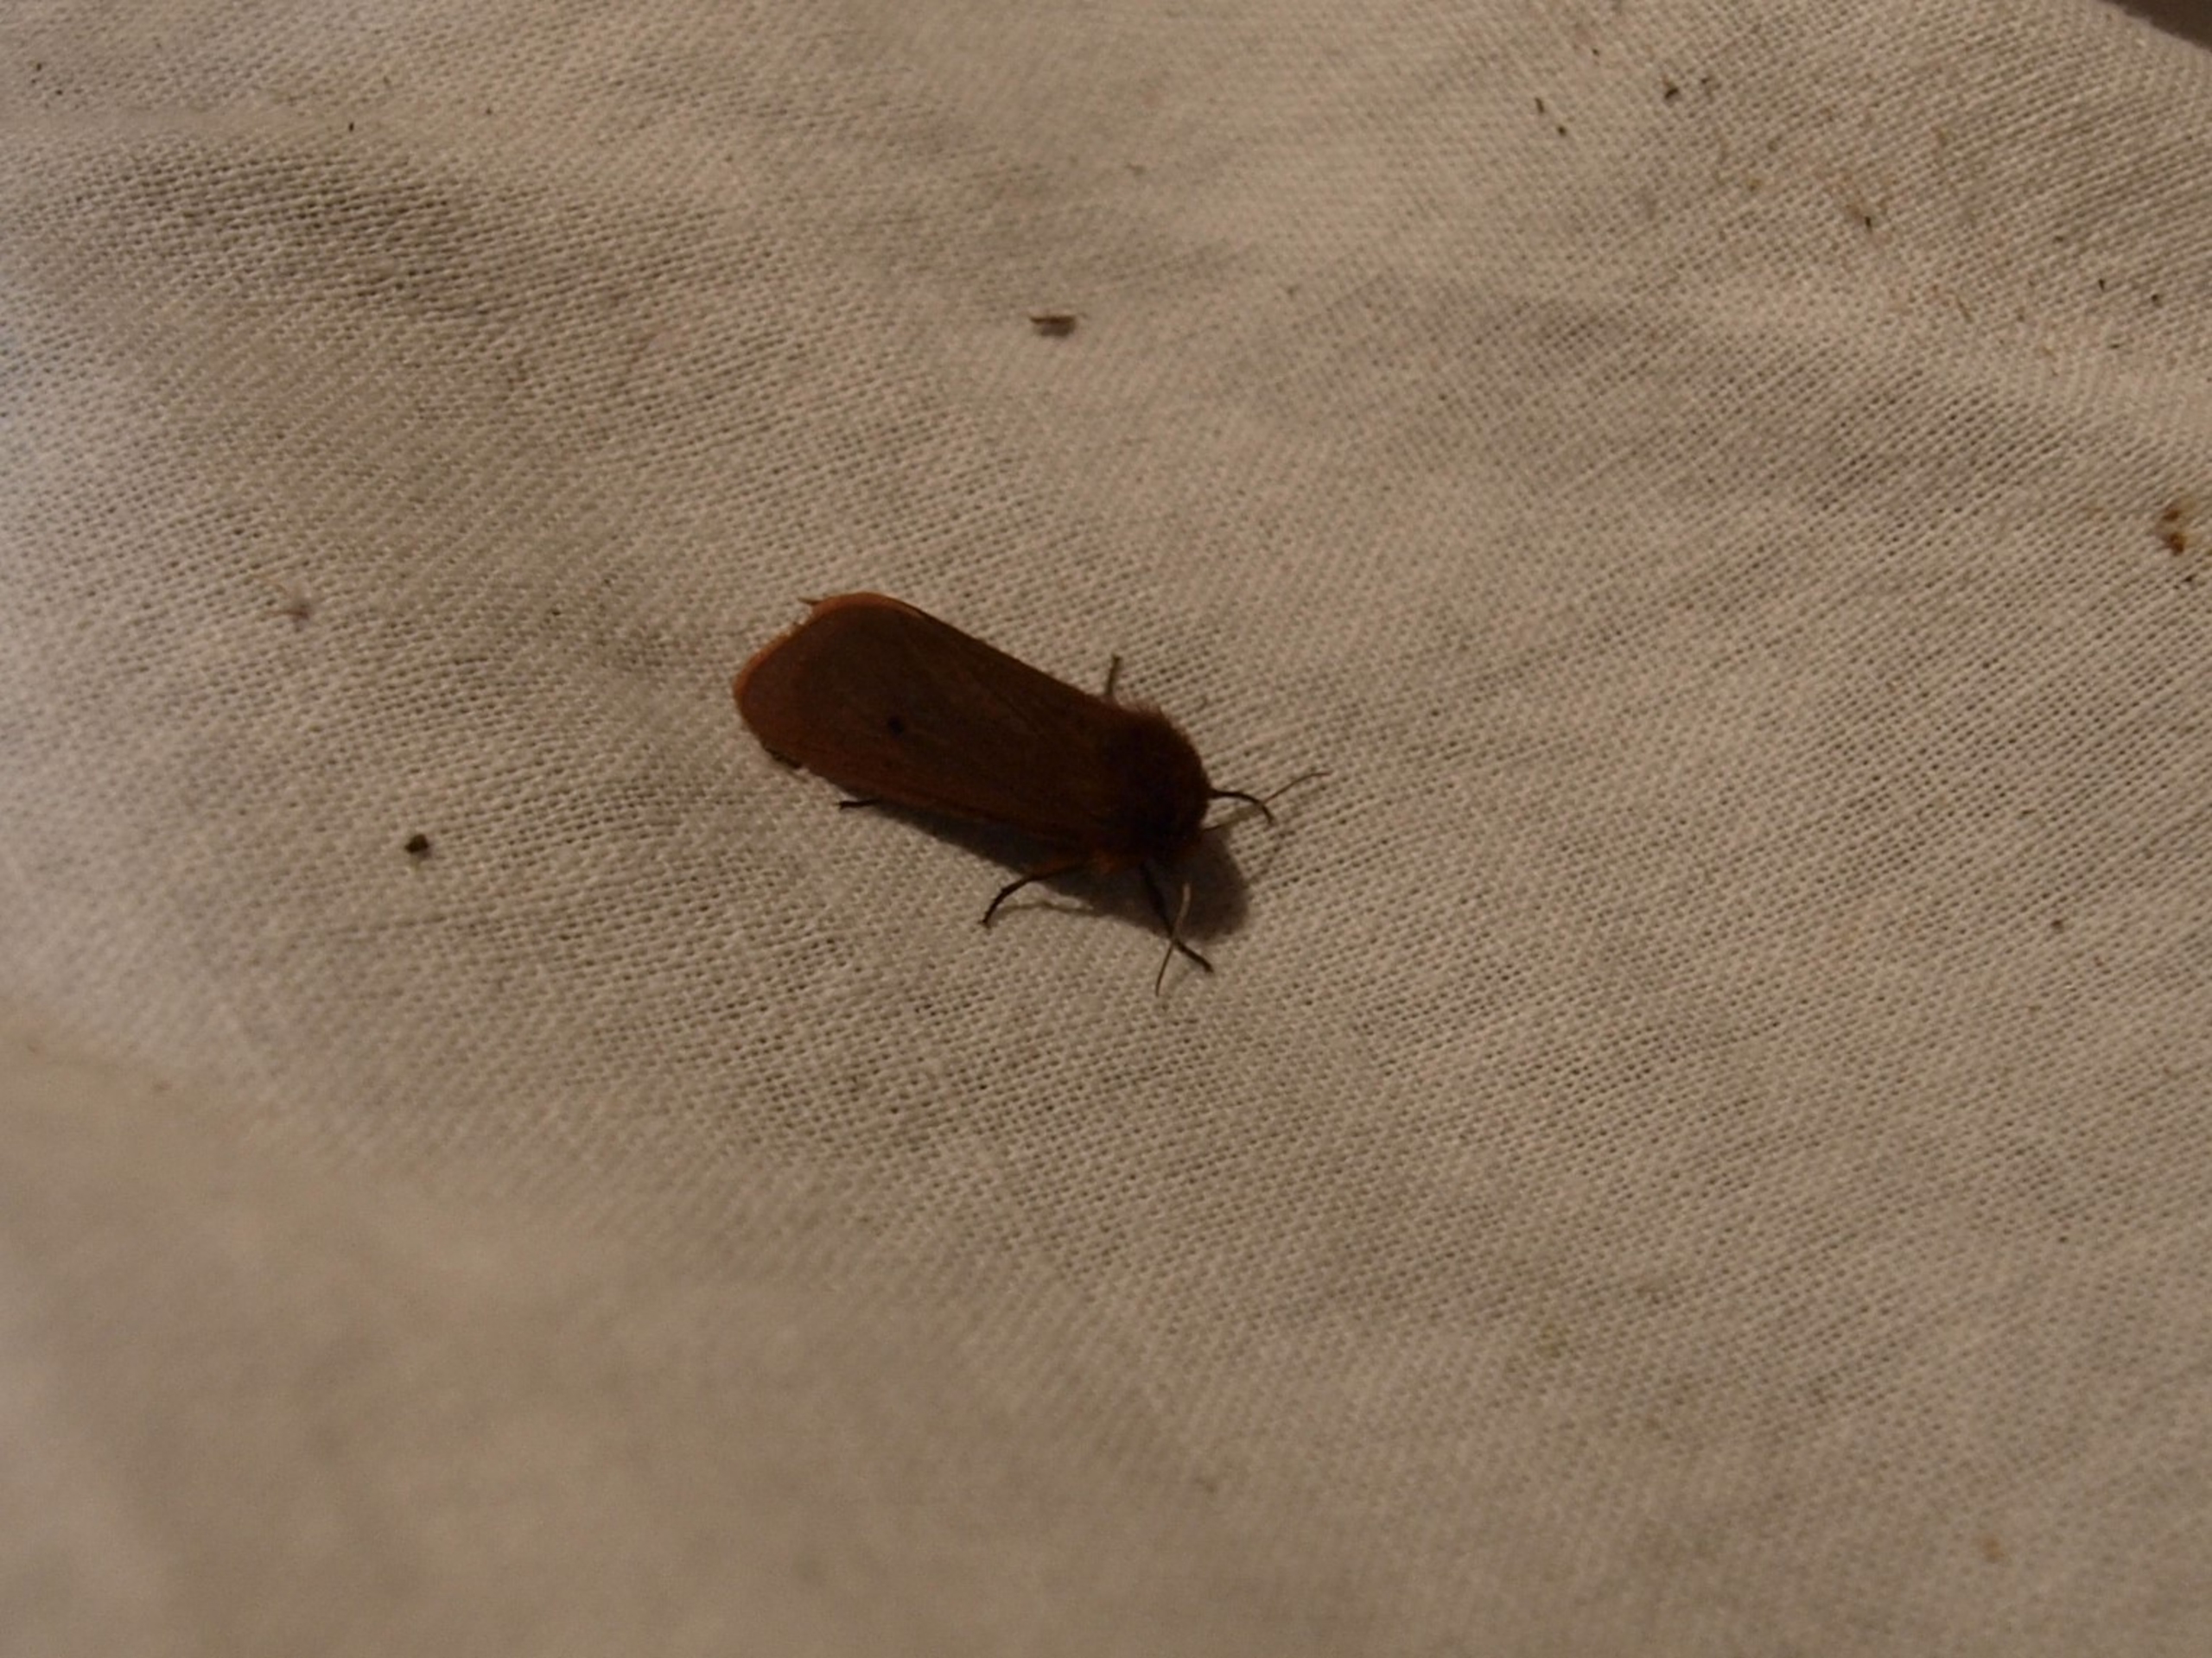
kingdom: Animalia
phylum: Arthropoda
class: Insecta
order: Lepidoptera
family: Erebidae
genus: Phragmatobia
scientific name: Phragmatobia fuliginosa
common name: Kanelbjørn
